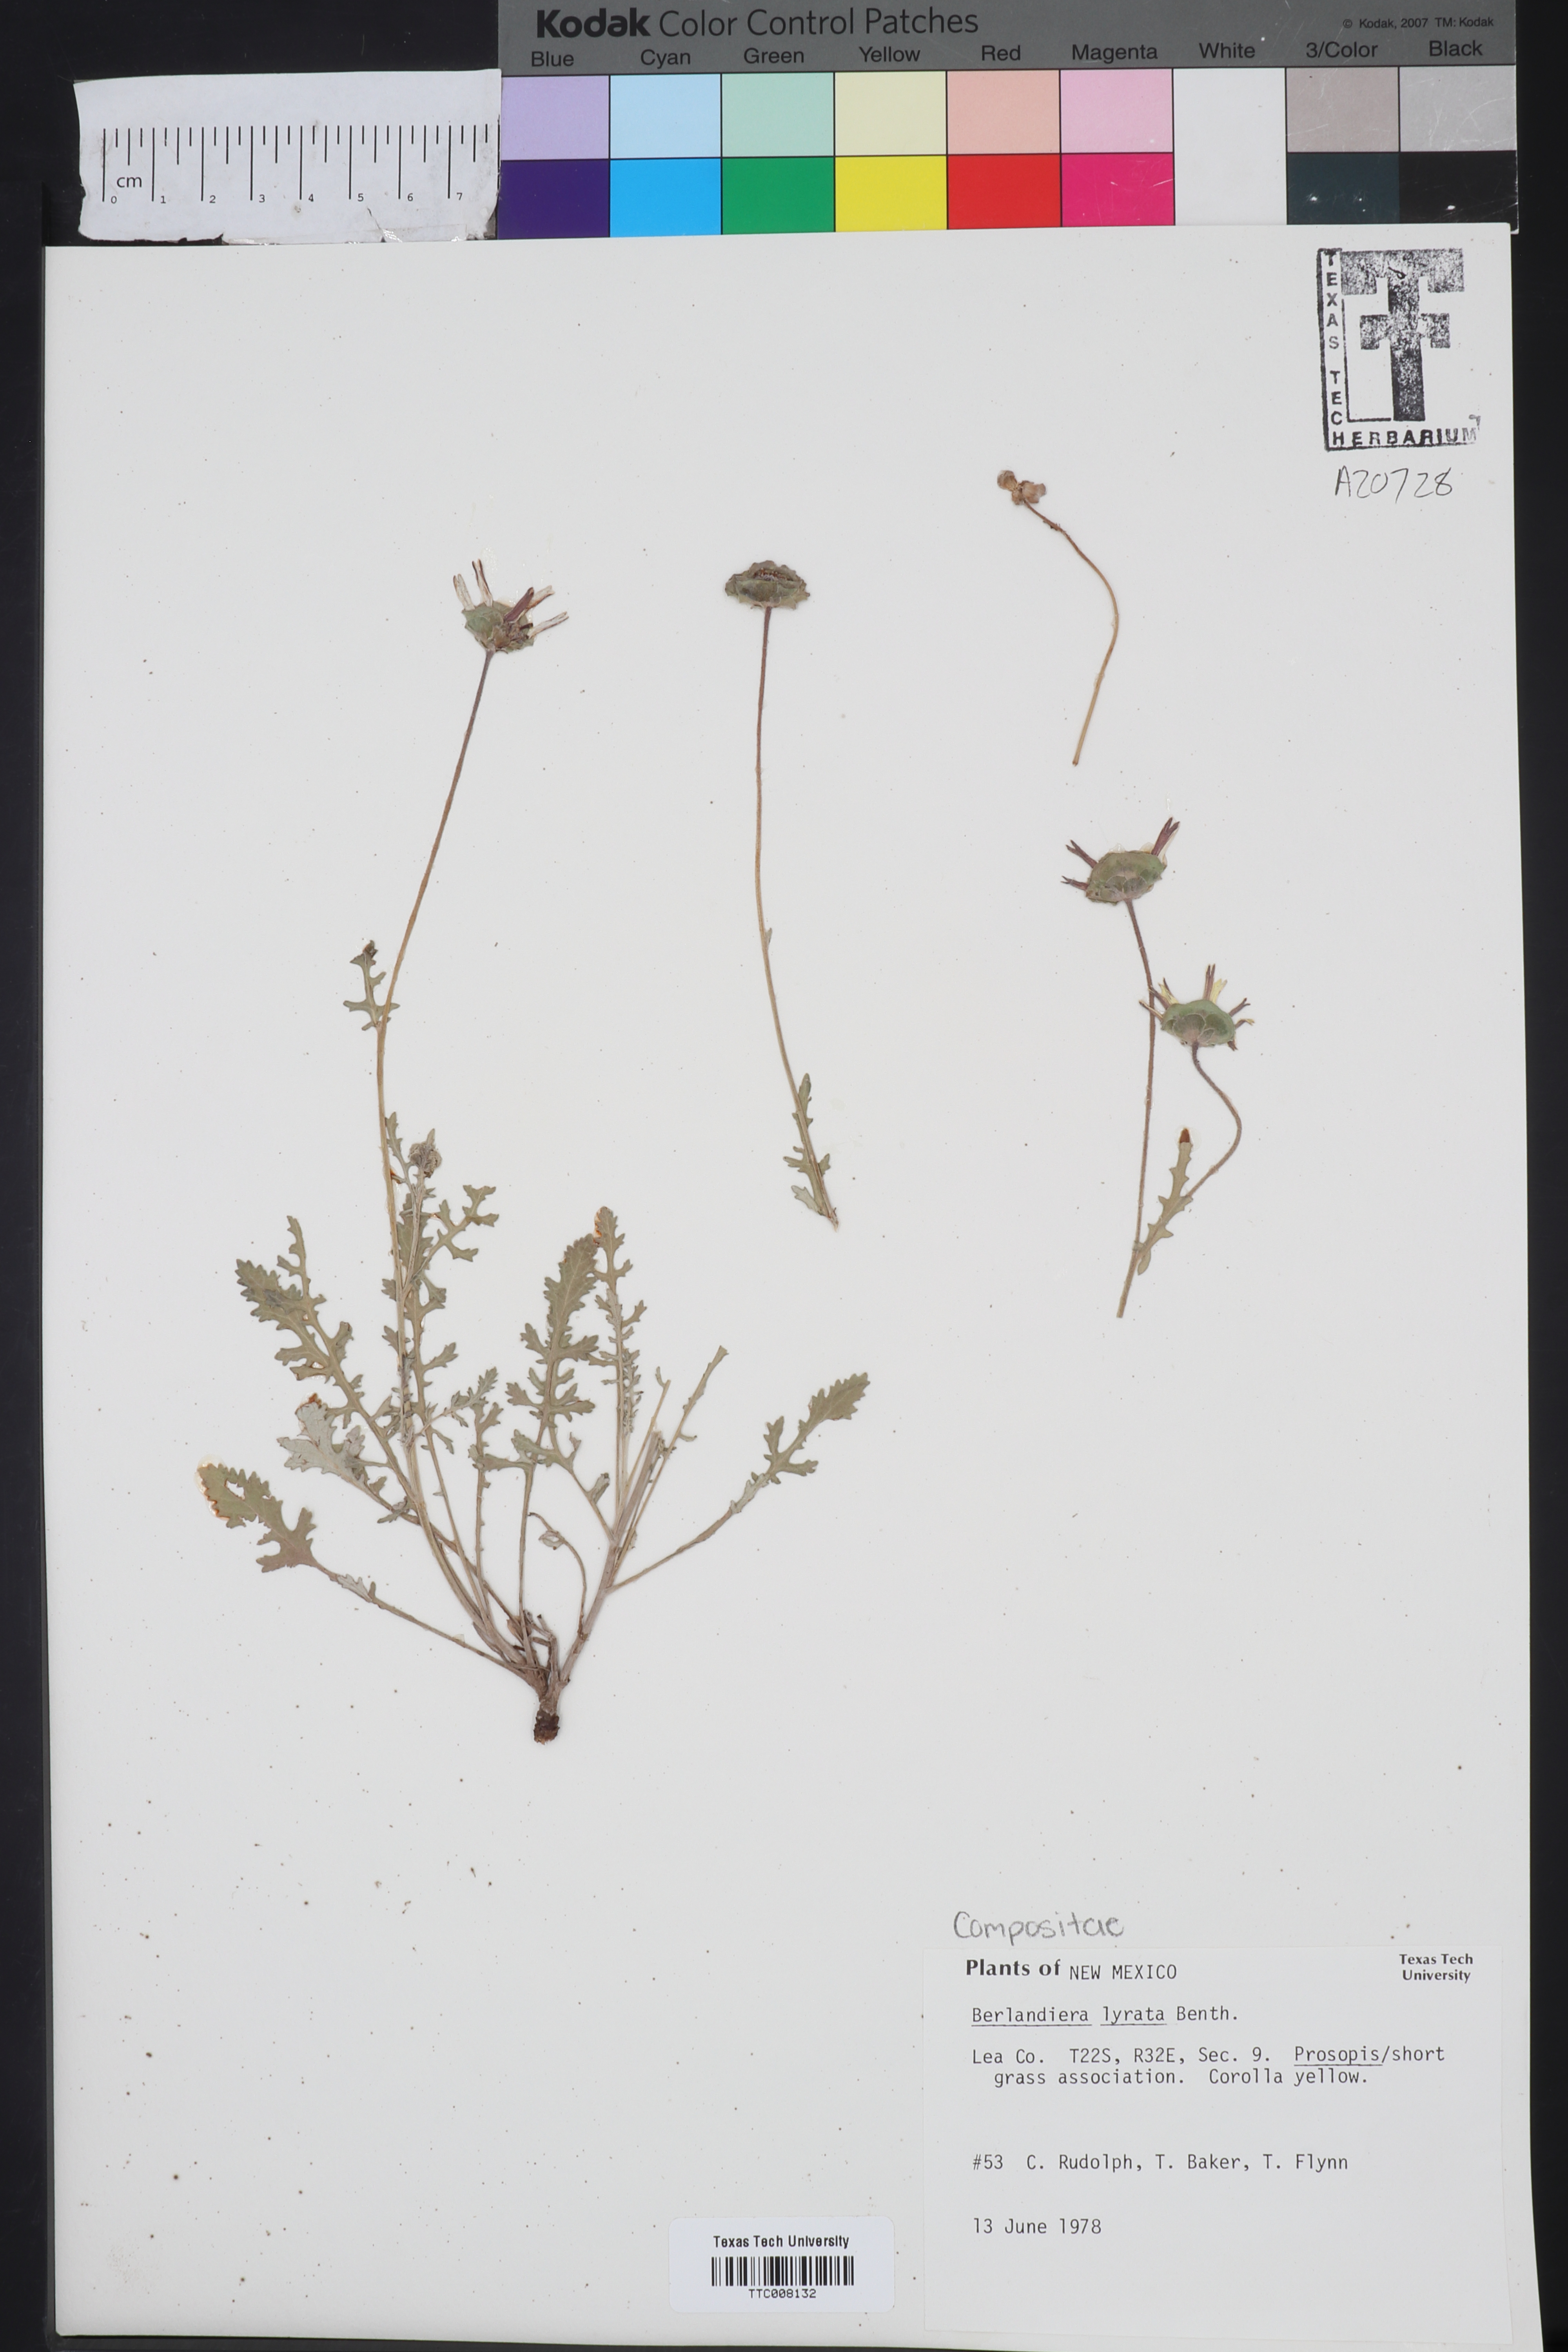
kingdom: Plantae
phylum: Tracheophyta
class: Magnoliopsida
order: Asterales
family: Asteraceae
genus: Berlandiera
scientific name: Berlandiera lyrata
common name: Chocolate-flower
